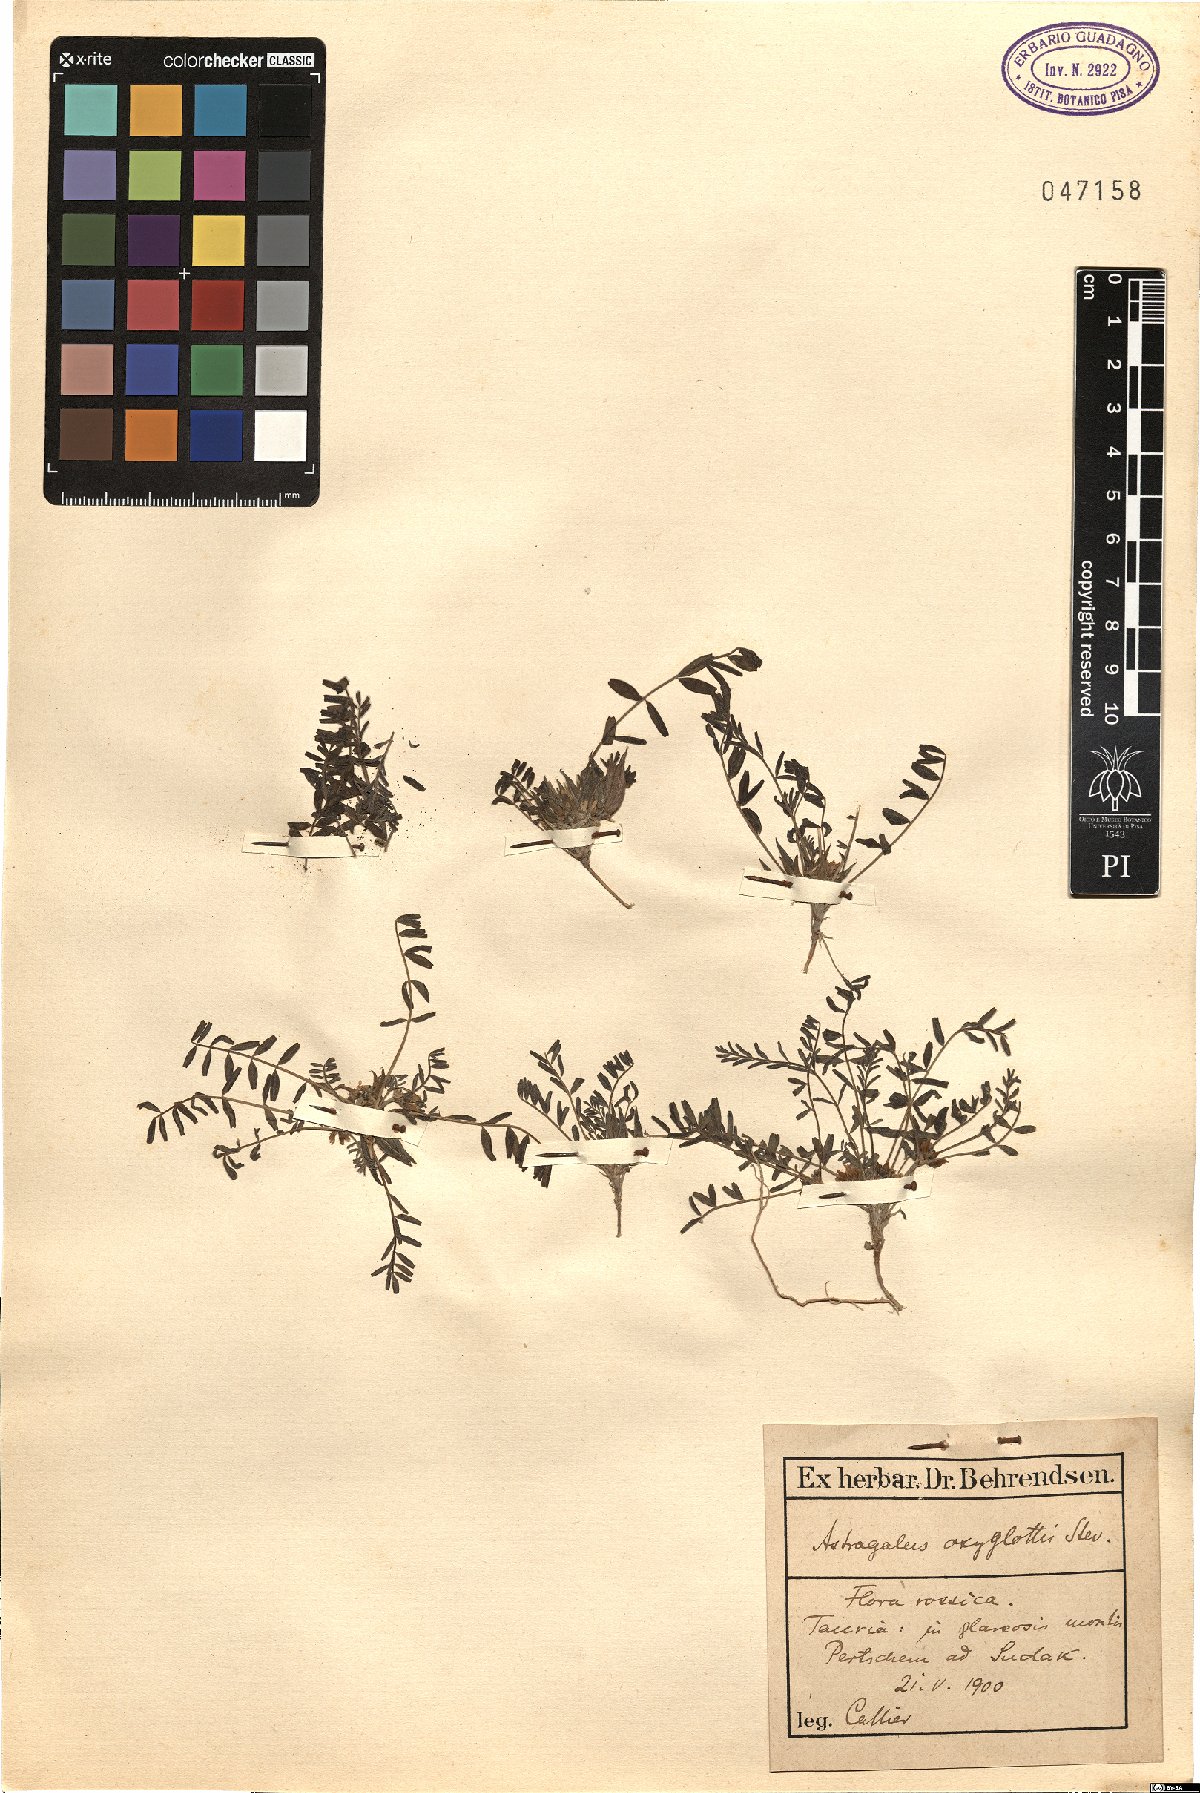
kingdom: Plantae
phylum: Tracheophyta
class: Magnoliopsida
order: Fabales
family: Fabaceae
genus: Astragalus
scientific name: Astragalus oxyglottis
